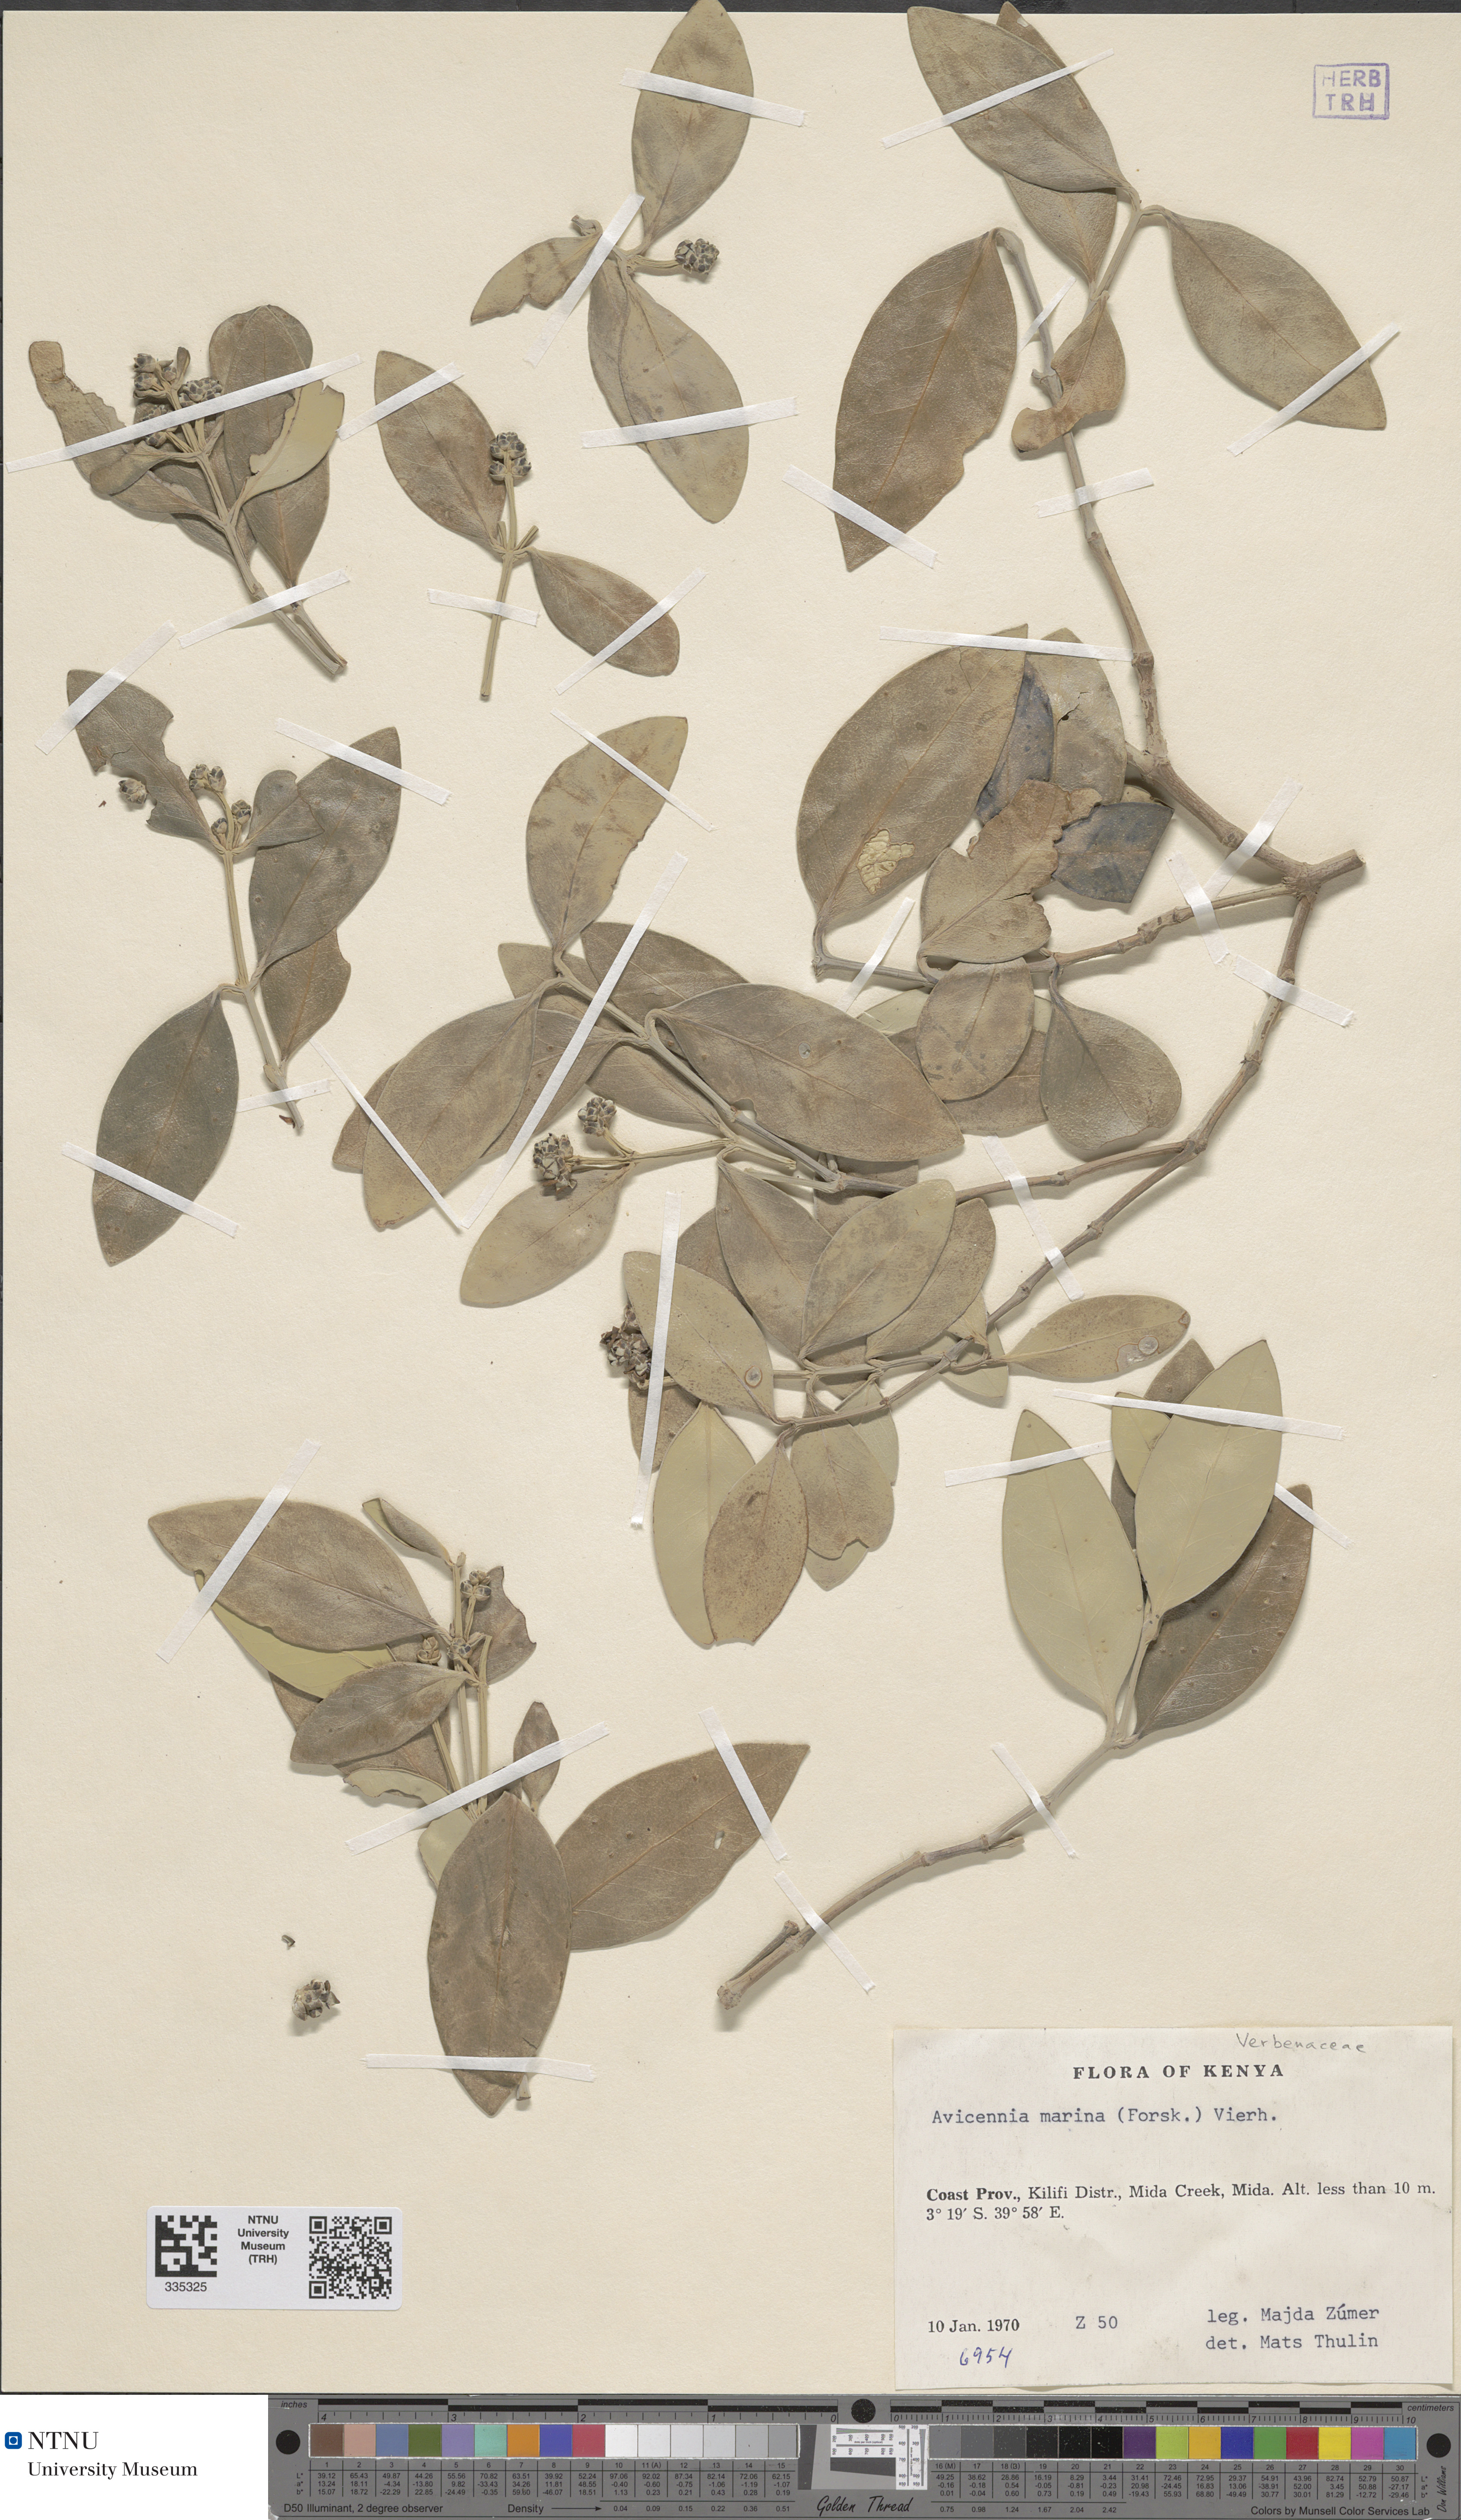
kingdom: Plantae
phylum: Tracheophyta
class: Magnoliopsida
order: Lamiales
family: Acanthaceae
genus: Avicennia
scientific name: Avicennia marina
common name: Gray mangrove
